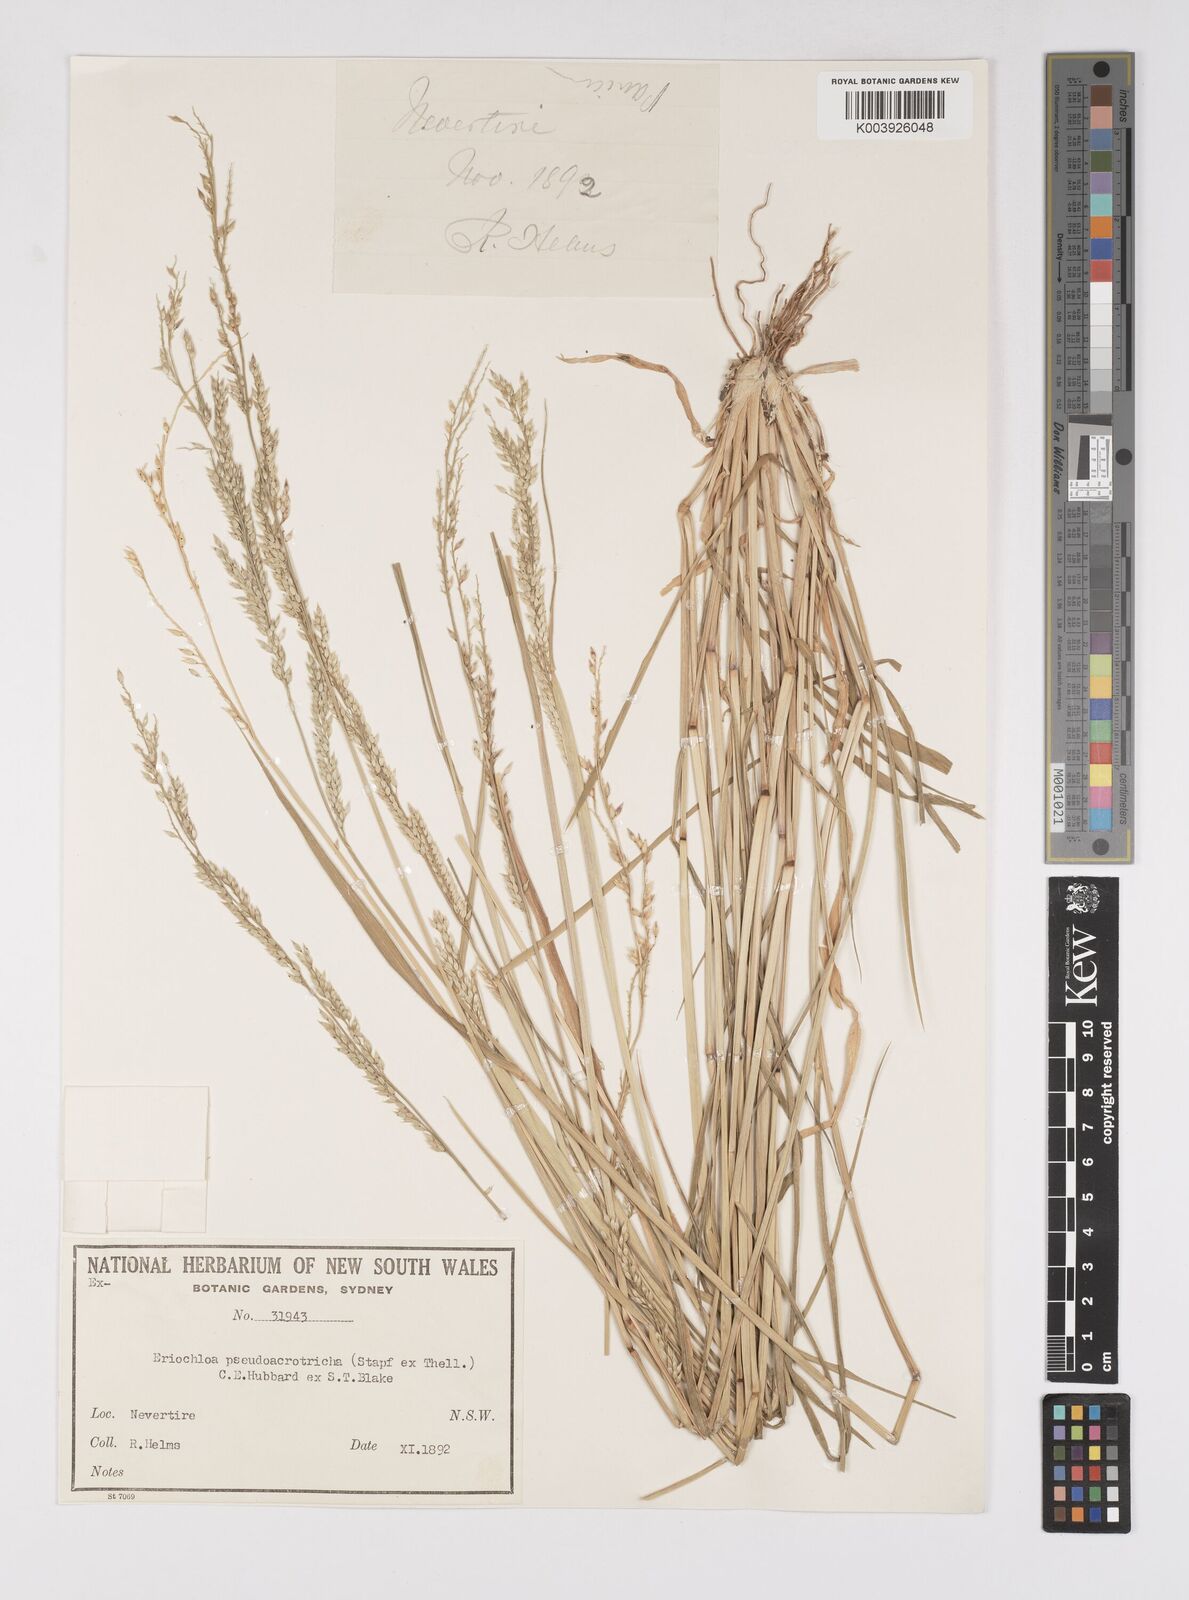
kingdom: Plantae
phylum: Tracheophyta
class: Liliopsida
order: Poales
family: Poaceae
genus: Eriochloa
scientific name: Eriochloa pseudoacrotricha
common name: Perennial cup-grass
